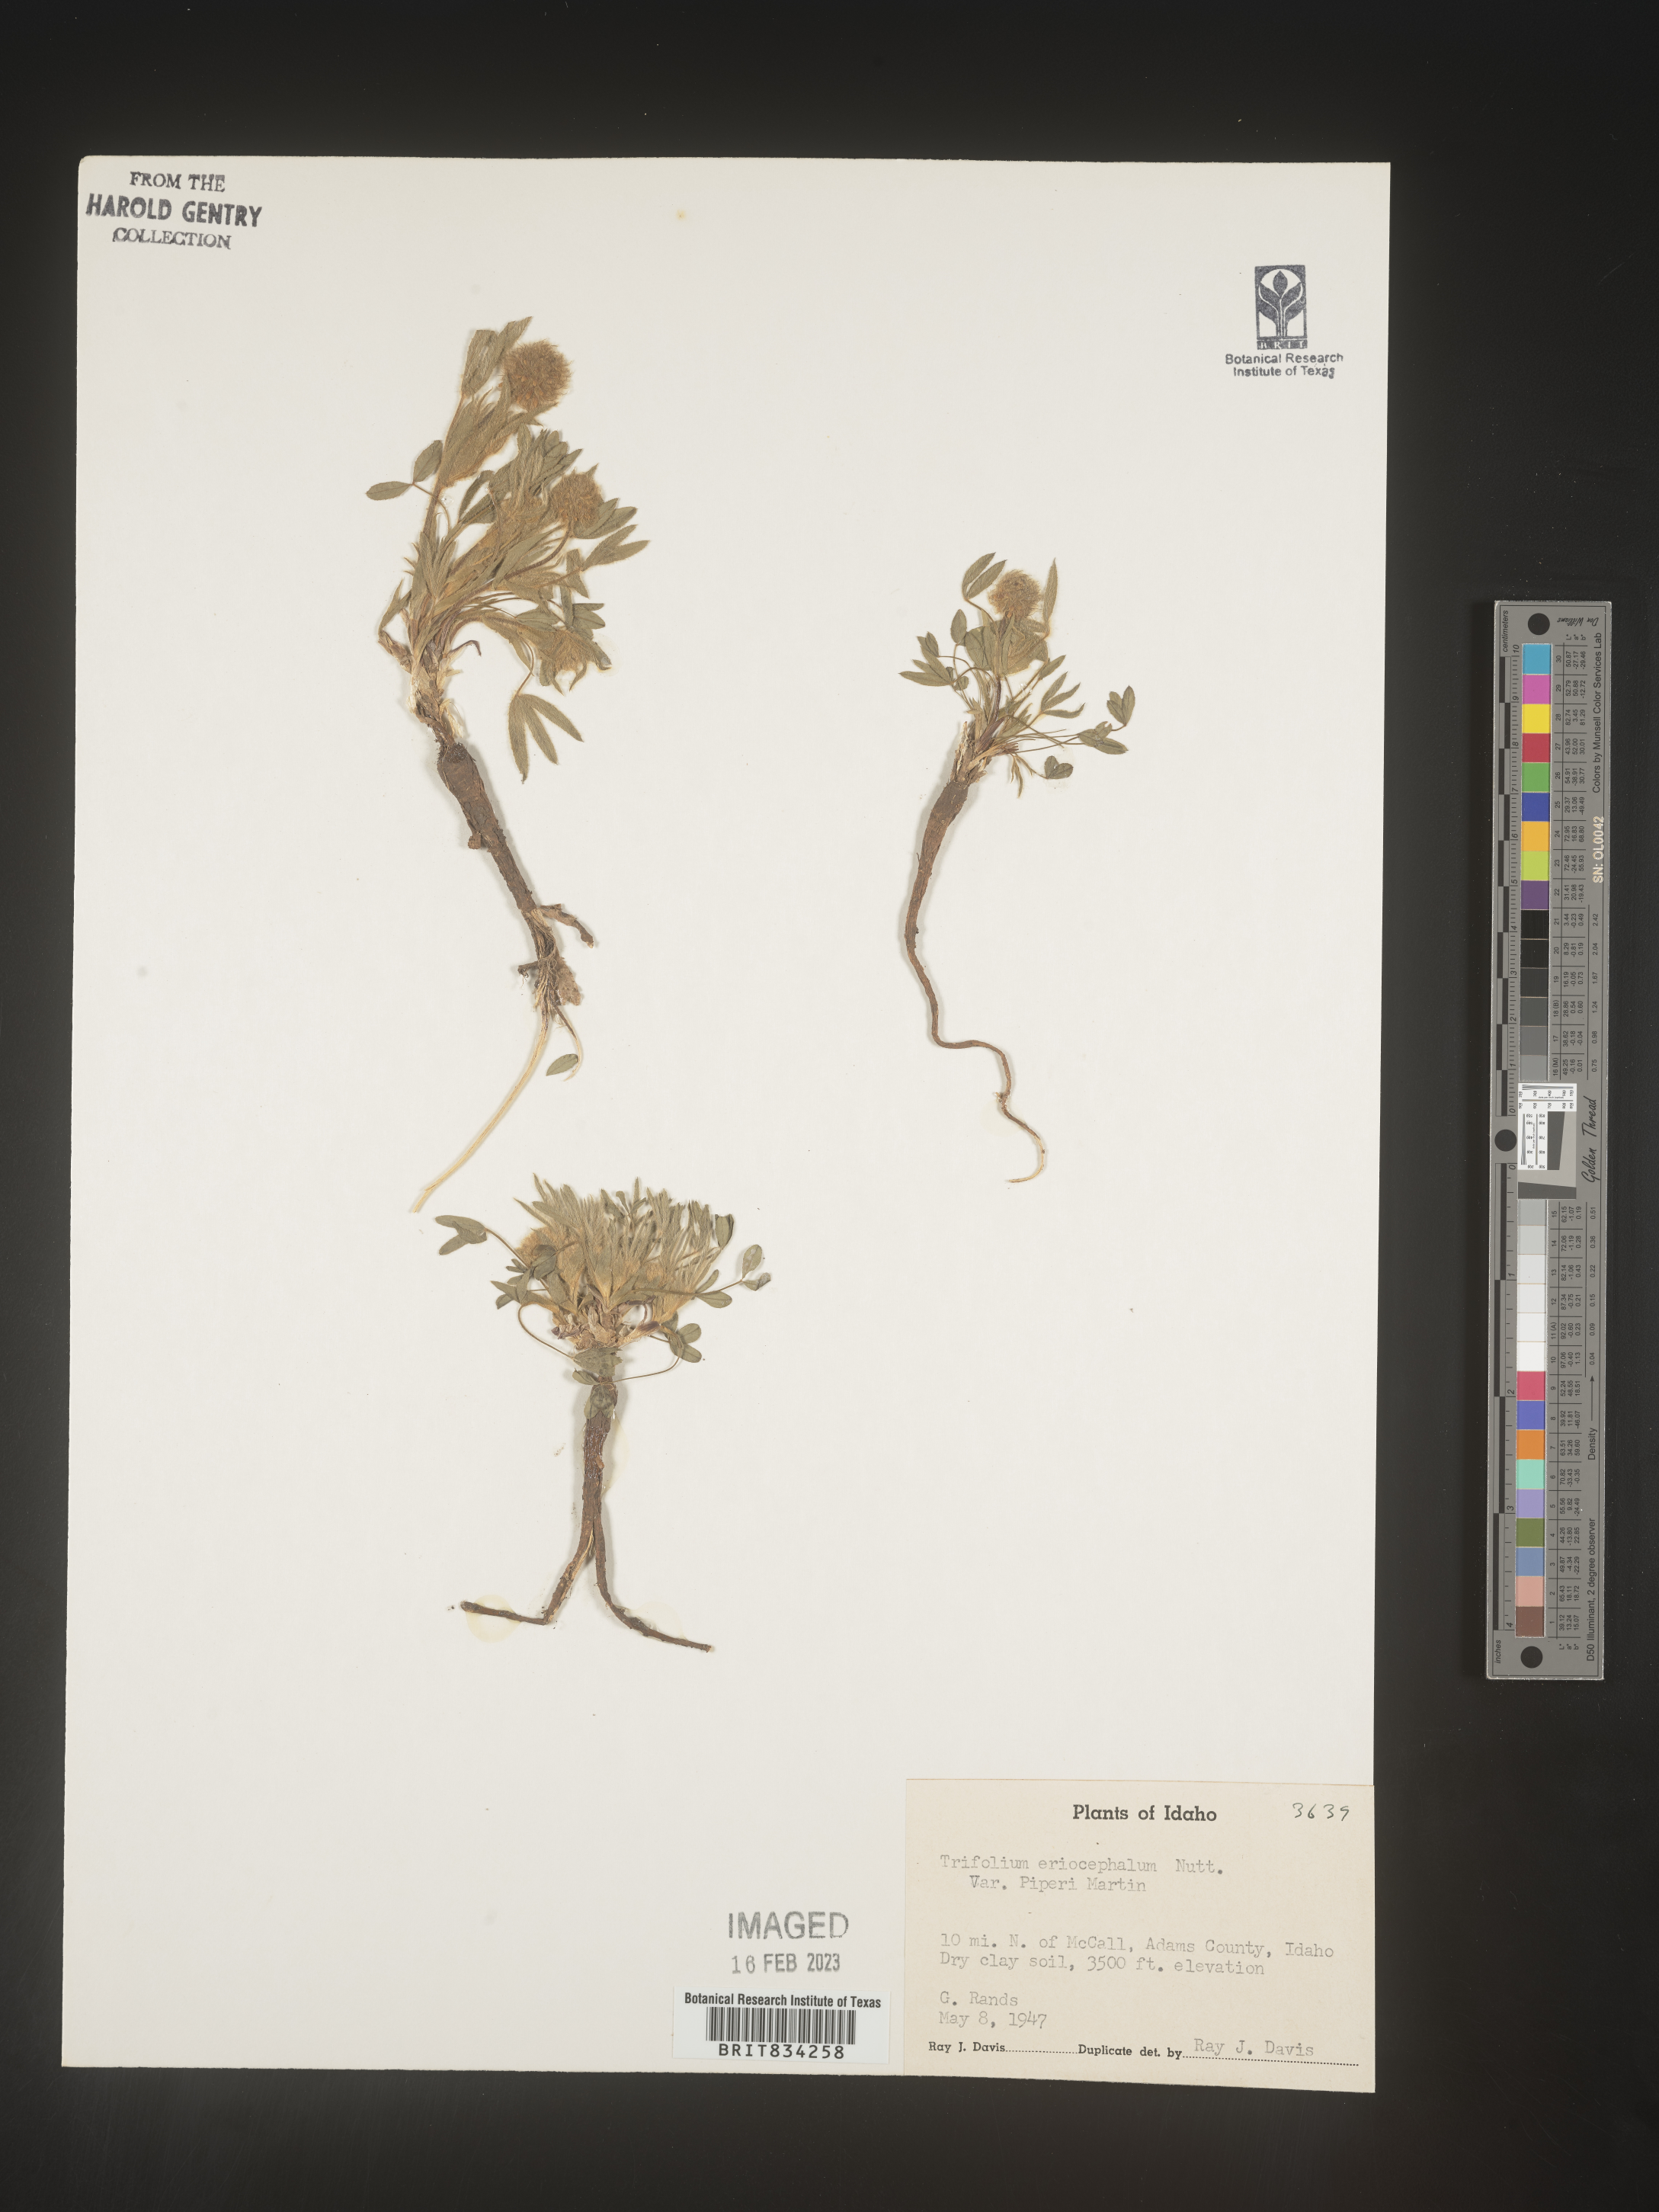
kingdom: Plantae
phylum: Tracheophyta
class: Magnoliopsida
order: Fabales
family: Fabaceae
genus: Trifolium
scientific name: Trifolium
